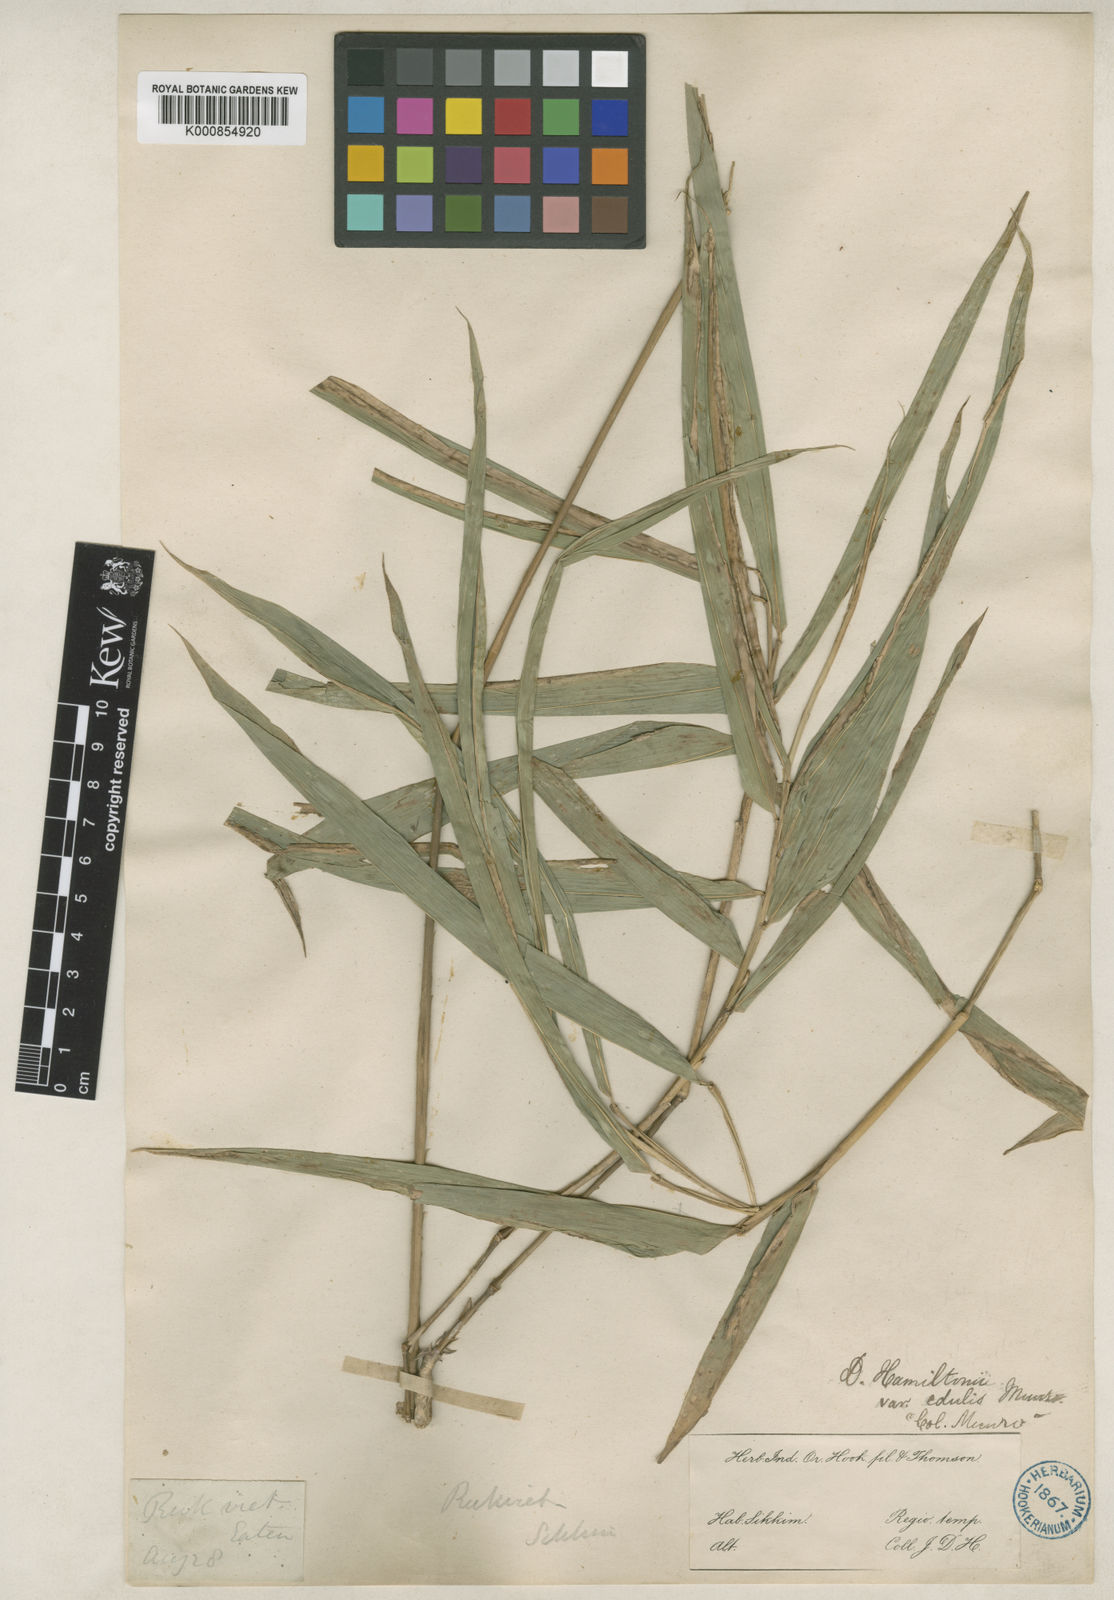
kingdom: Plantae
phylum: Tracheophyta
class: Liliopsida
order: Poales
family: Poaceae
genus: Dendrocalamus
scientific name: Dendrocalamus hamiltonii
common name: Tama bamboo
